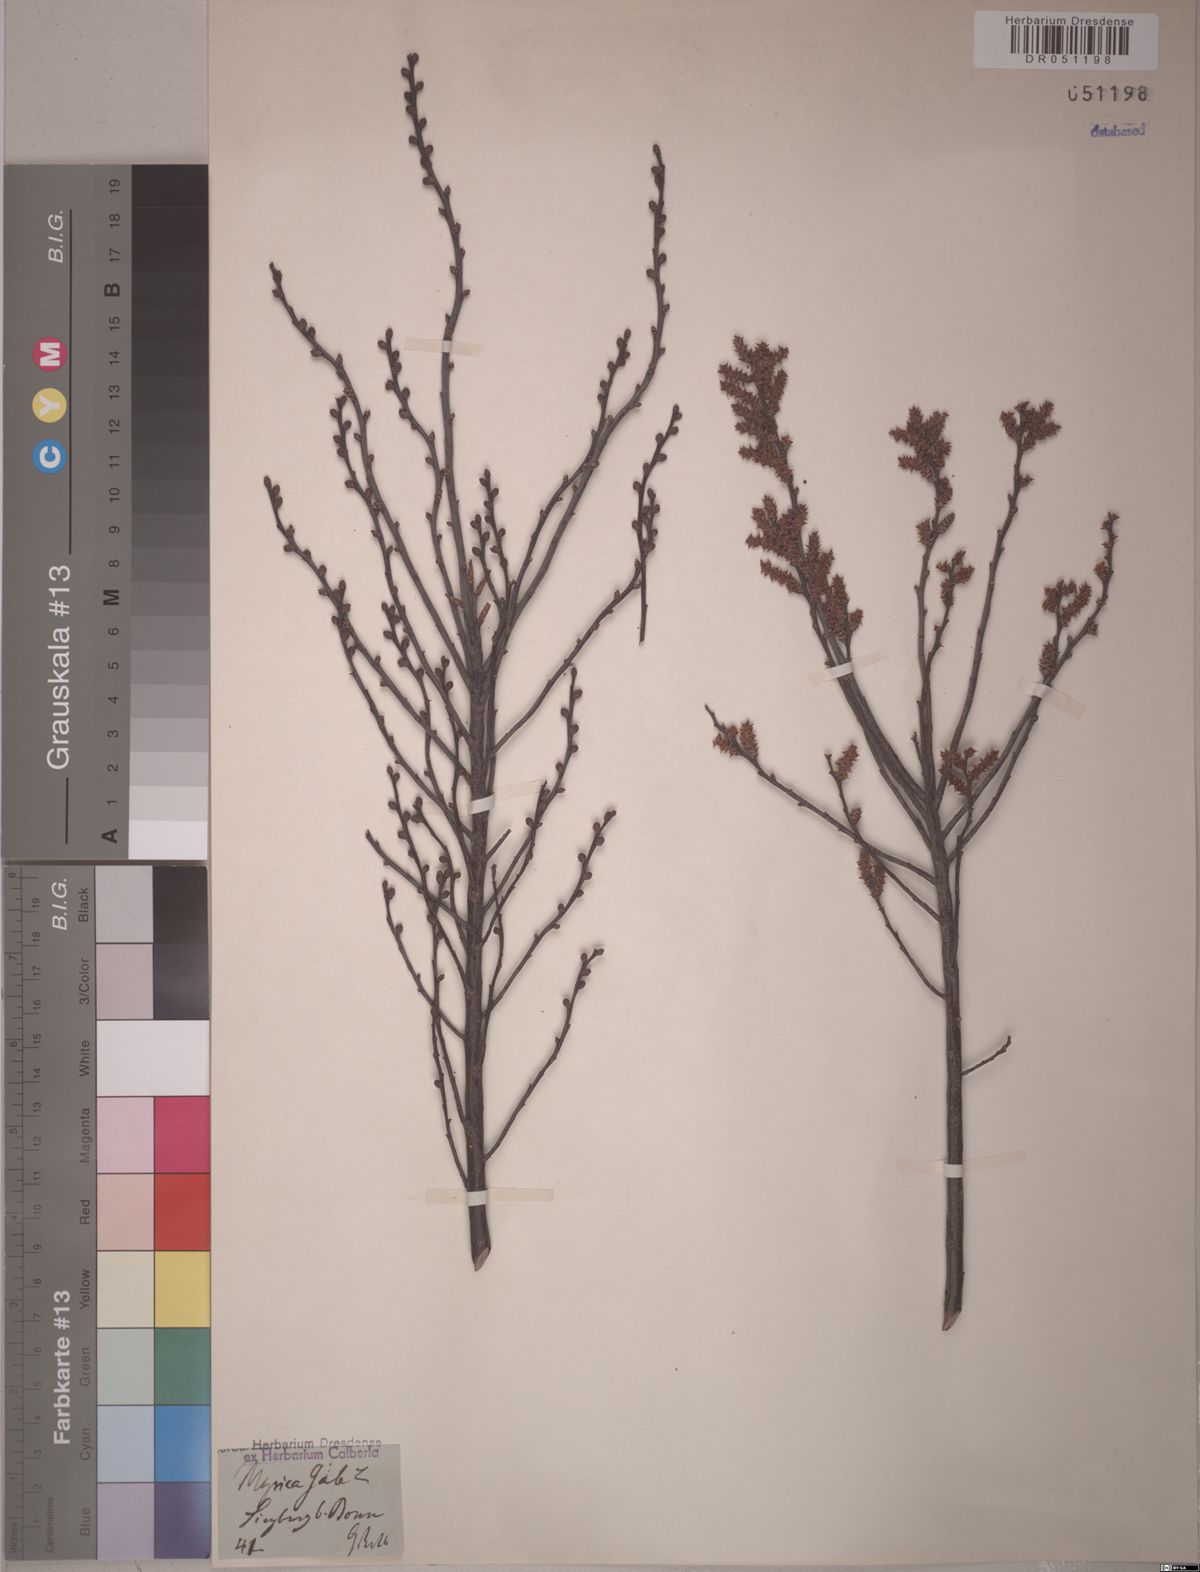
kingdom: Plantae
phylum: Tracheophyta
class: Magnoliopsida
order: Fagales
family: Myricaceae
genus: Myrica
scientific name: Myrica gale
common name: Sweet gale
